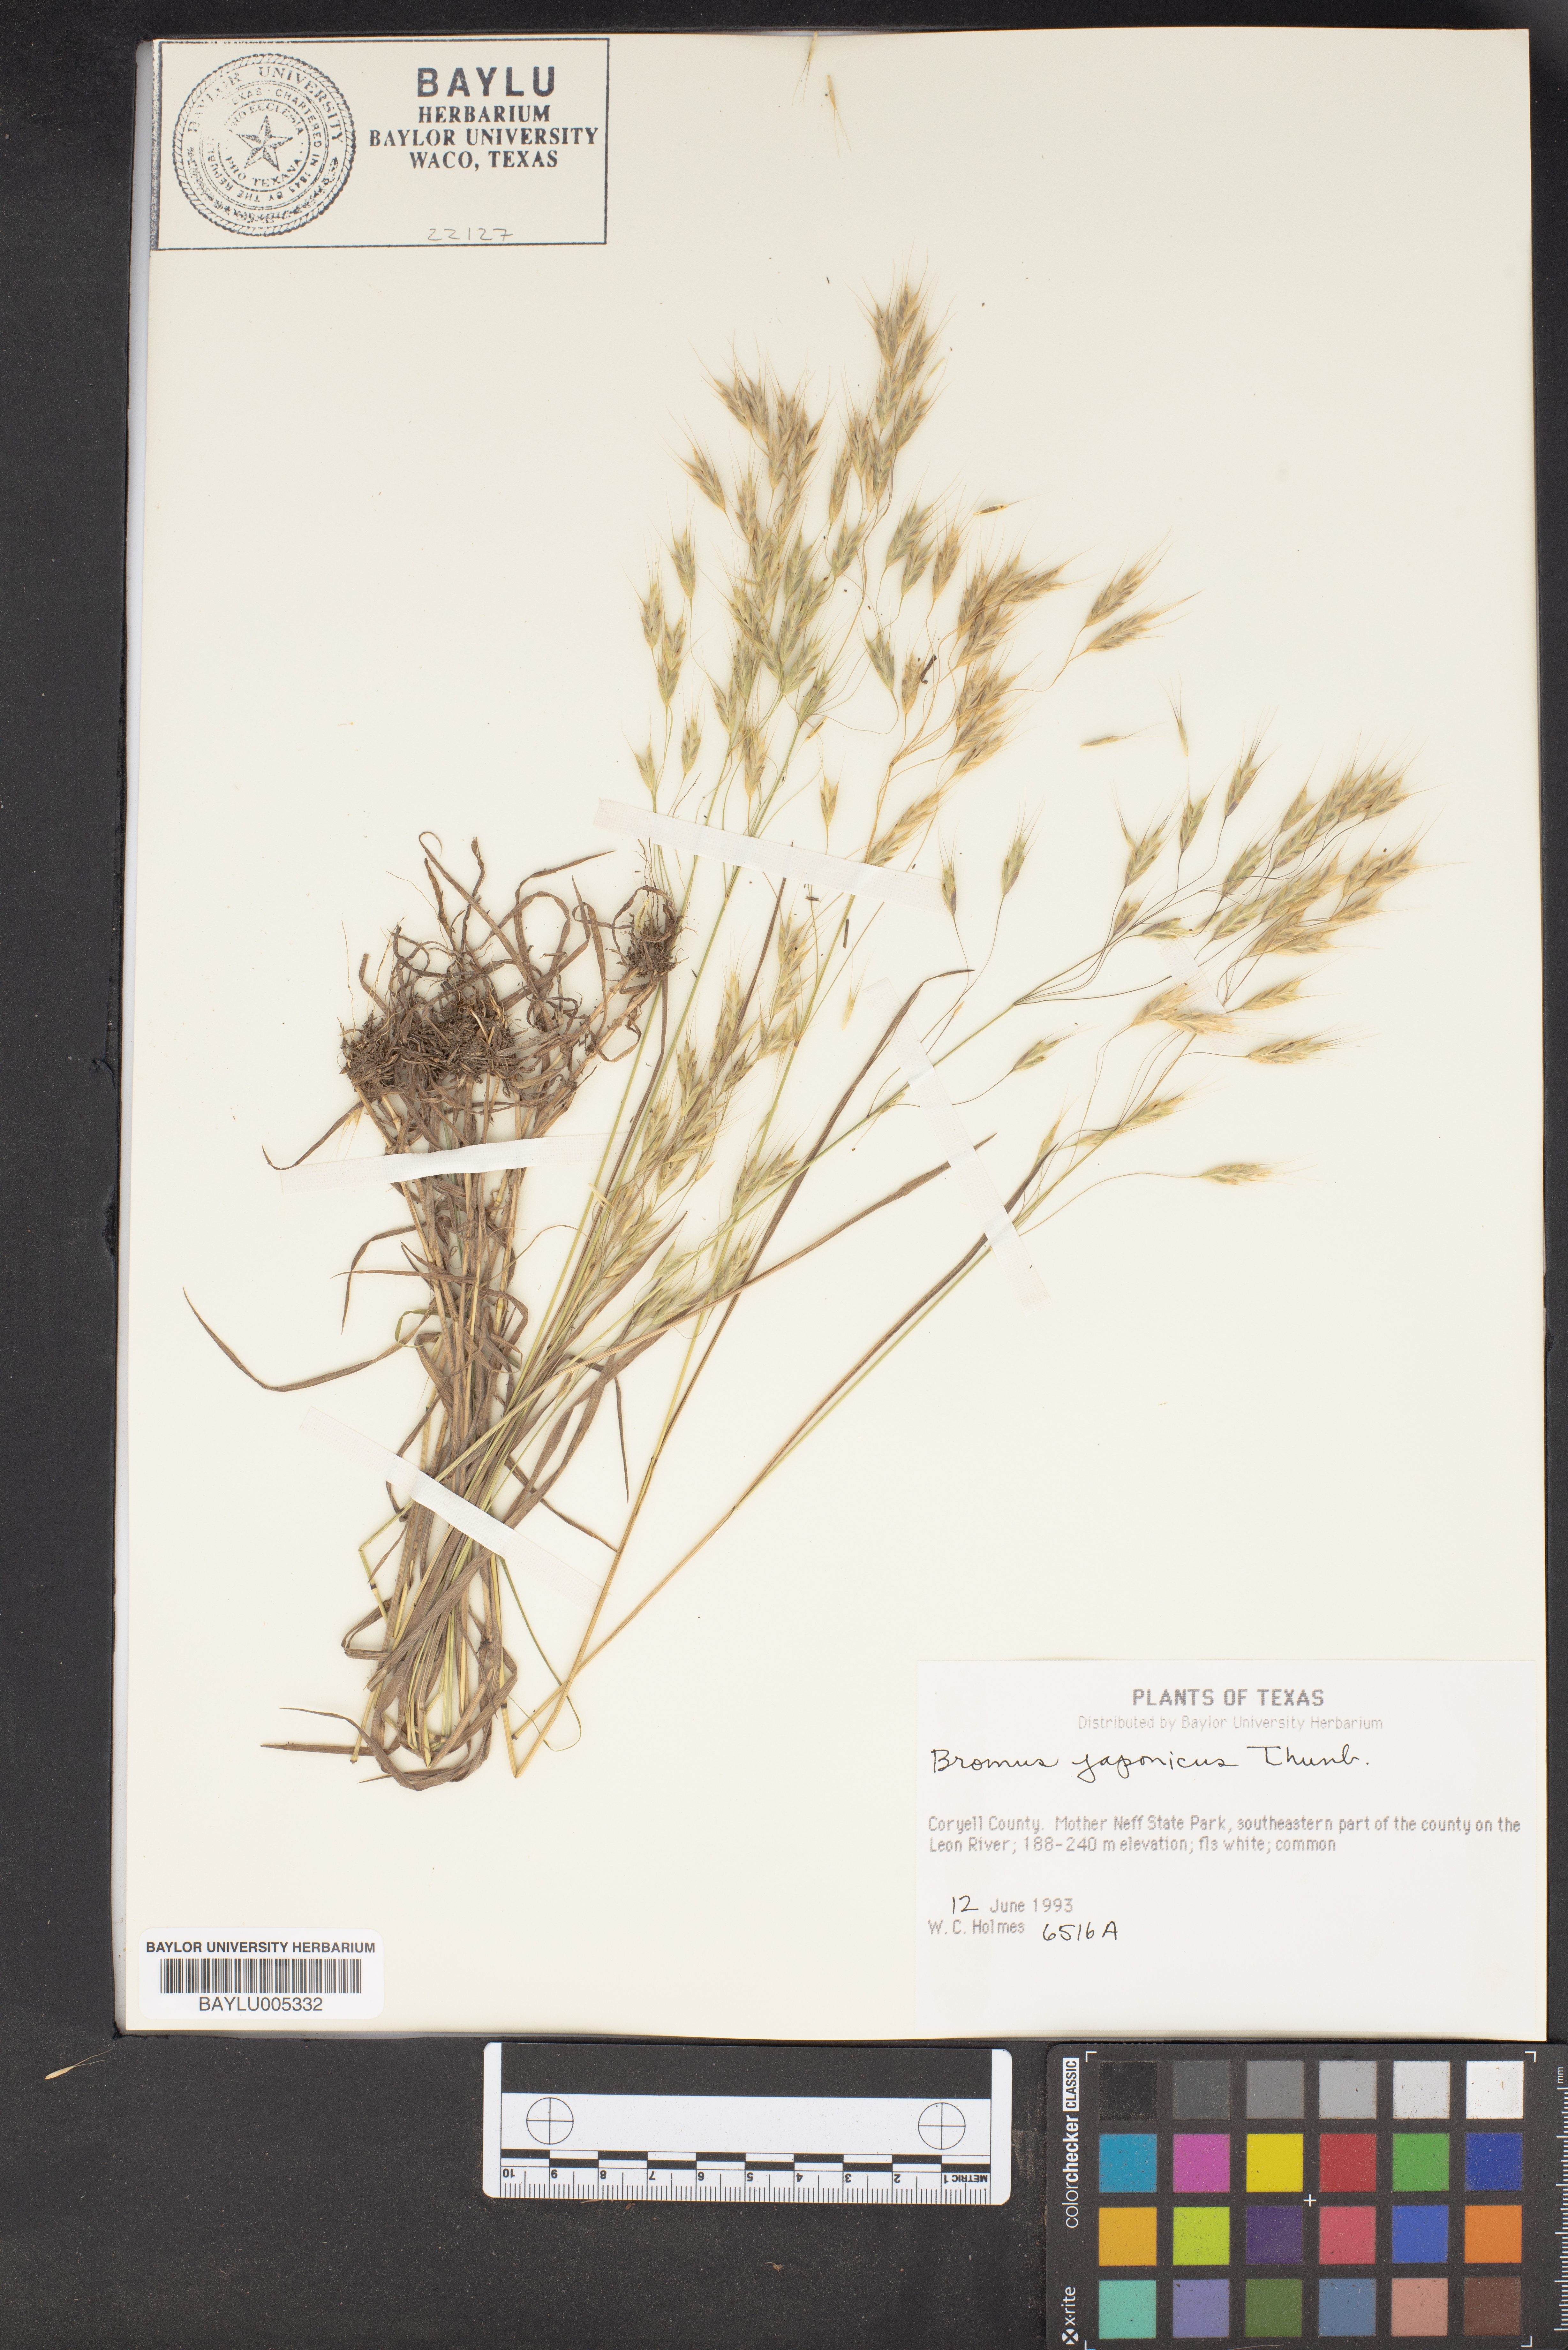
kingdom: Plantae
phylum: Tracheophyta
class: Liliopsida
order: Poales
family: Poaceae
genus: Bromus
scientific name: Bromus japonicus
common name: Japanese brome
